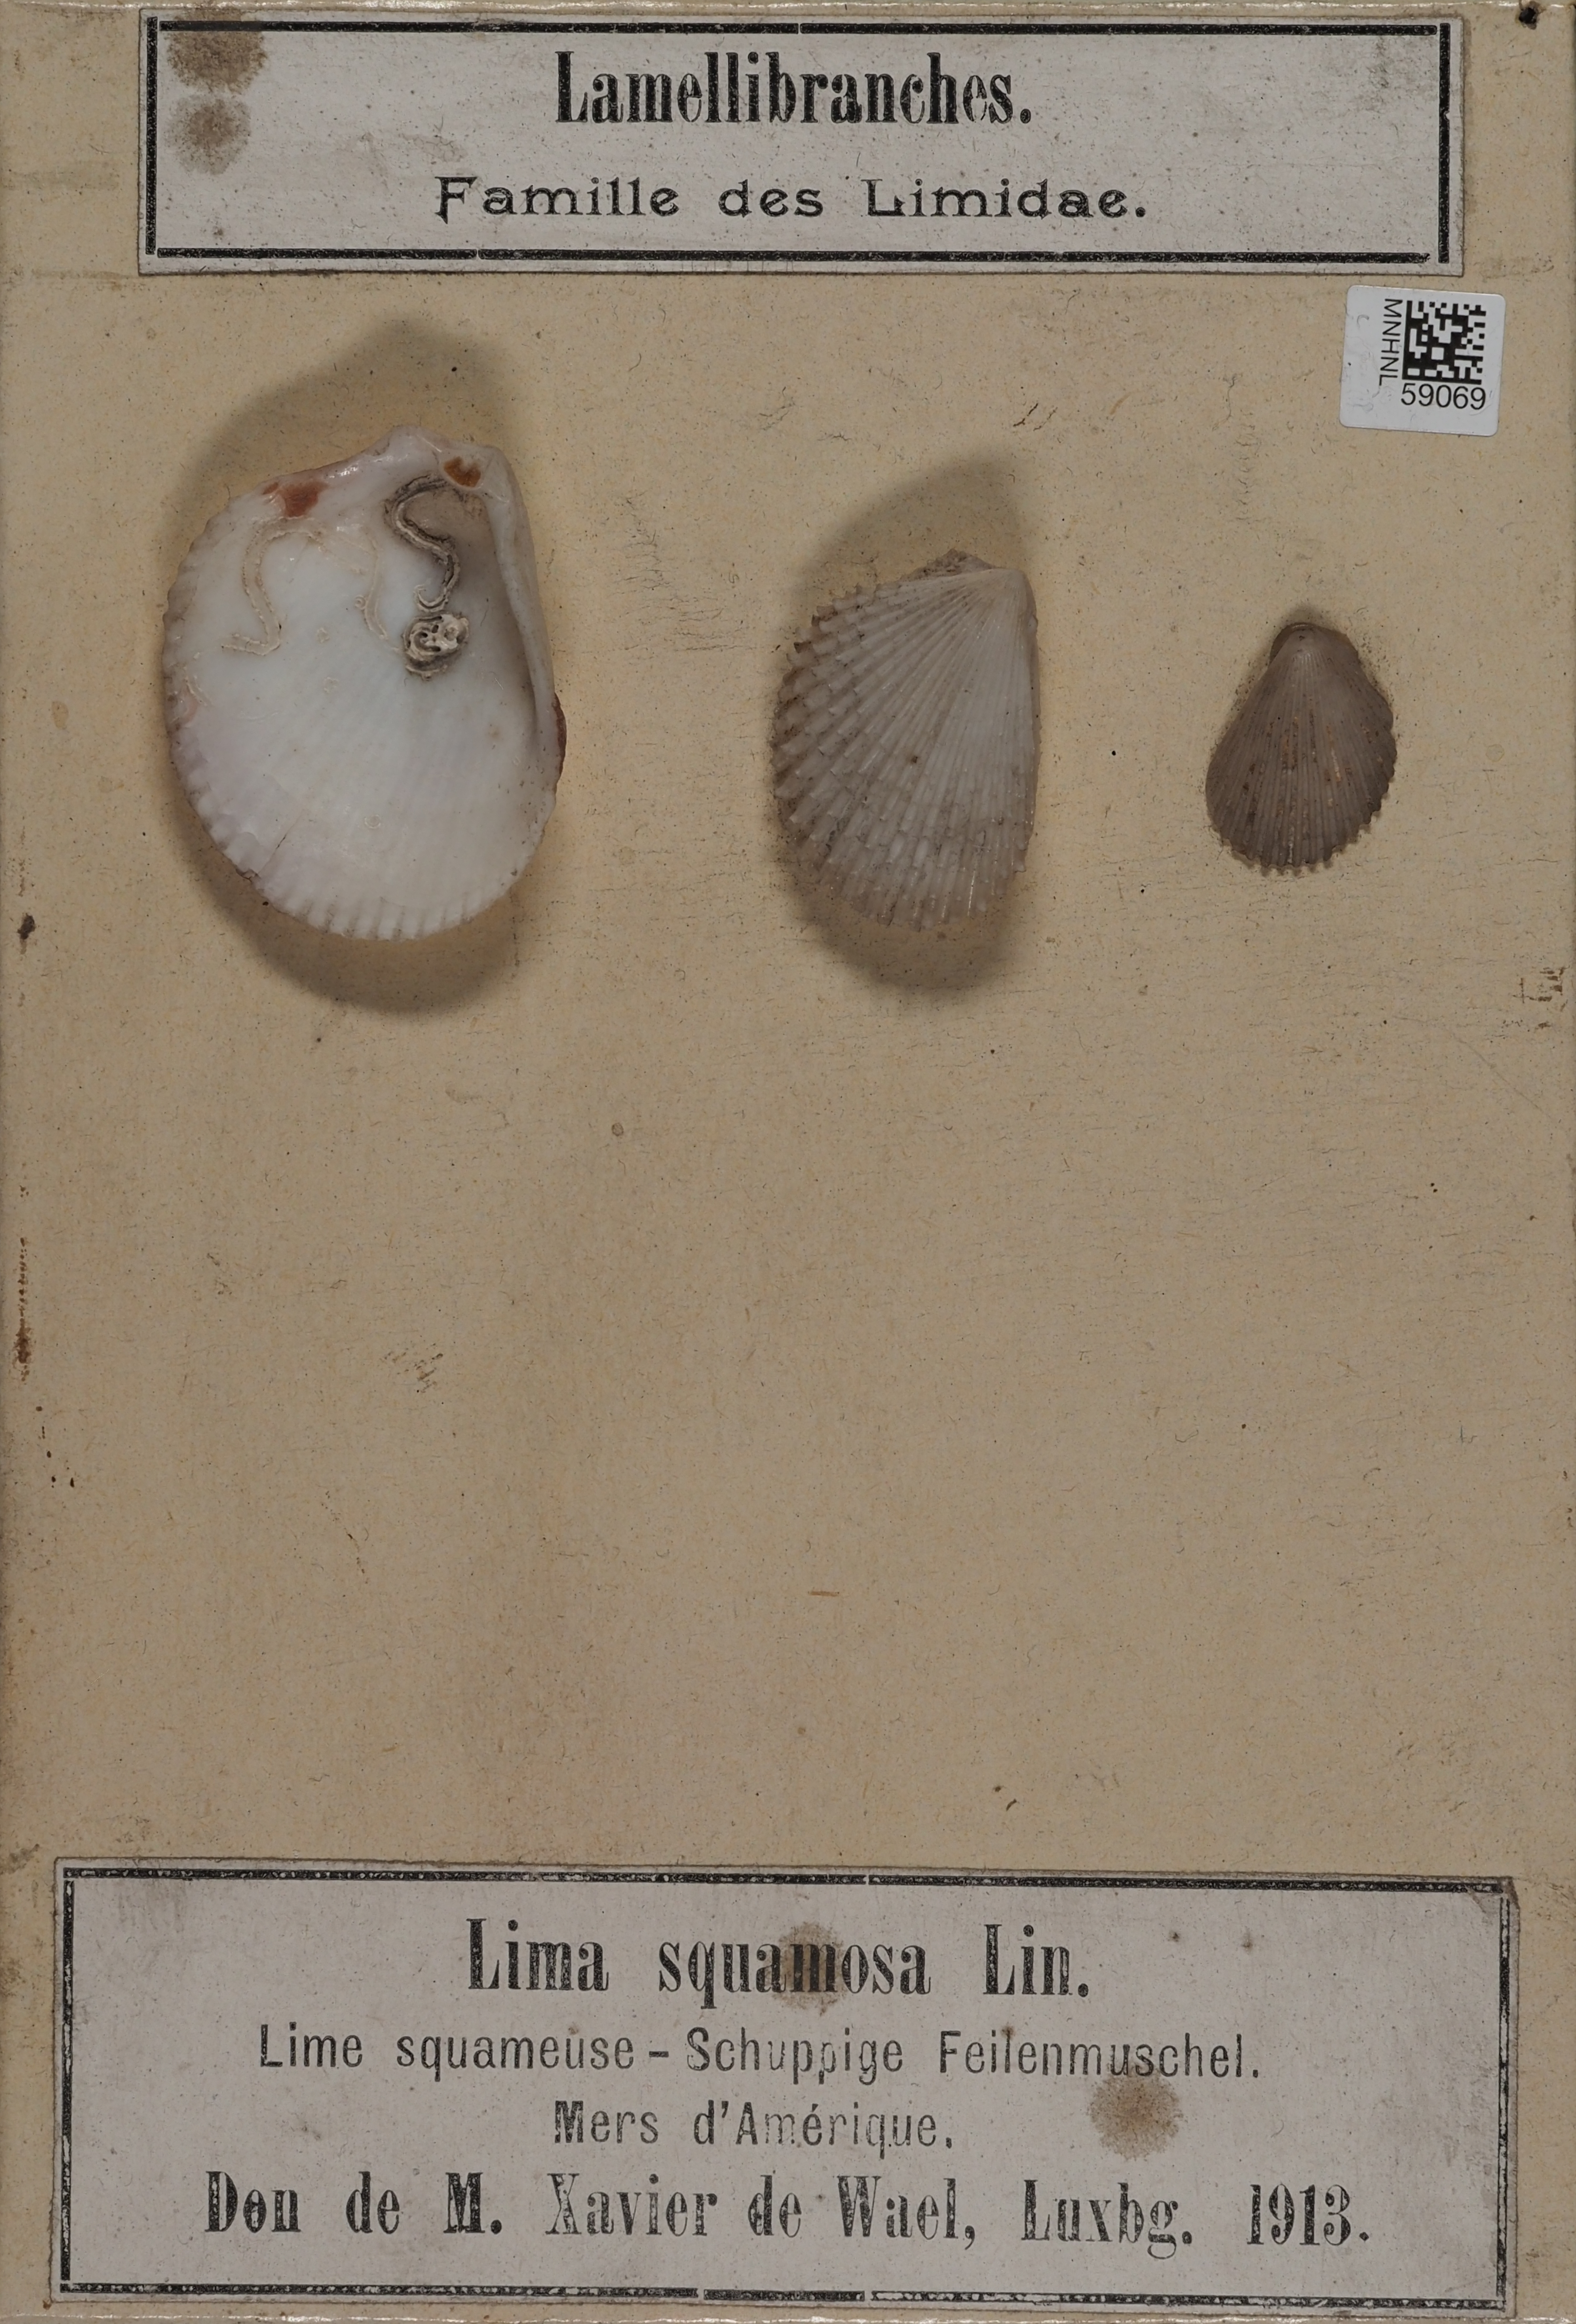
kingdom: Animalia
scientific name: Animalia
